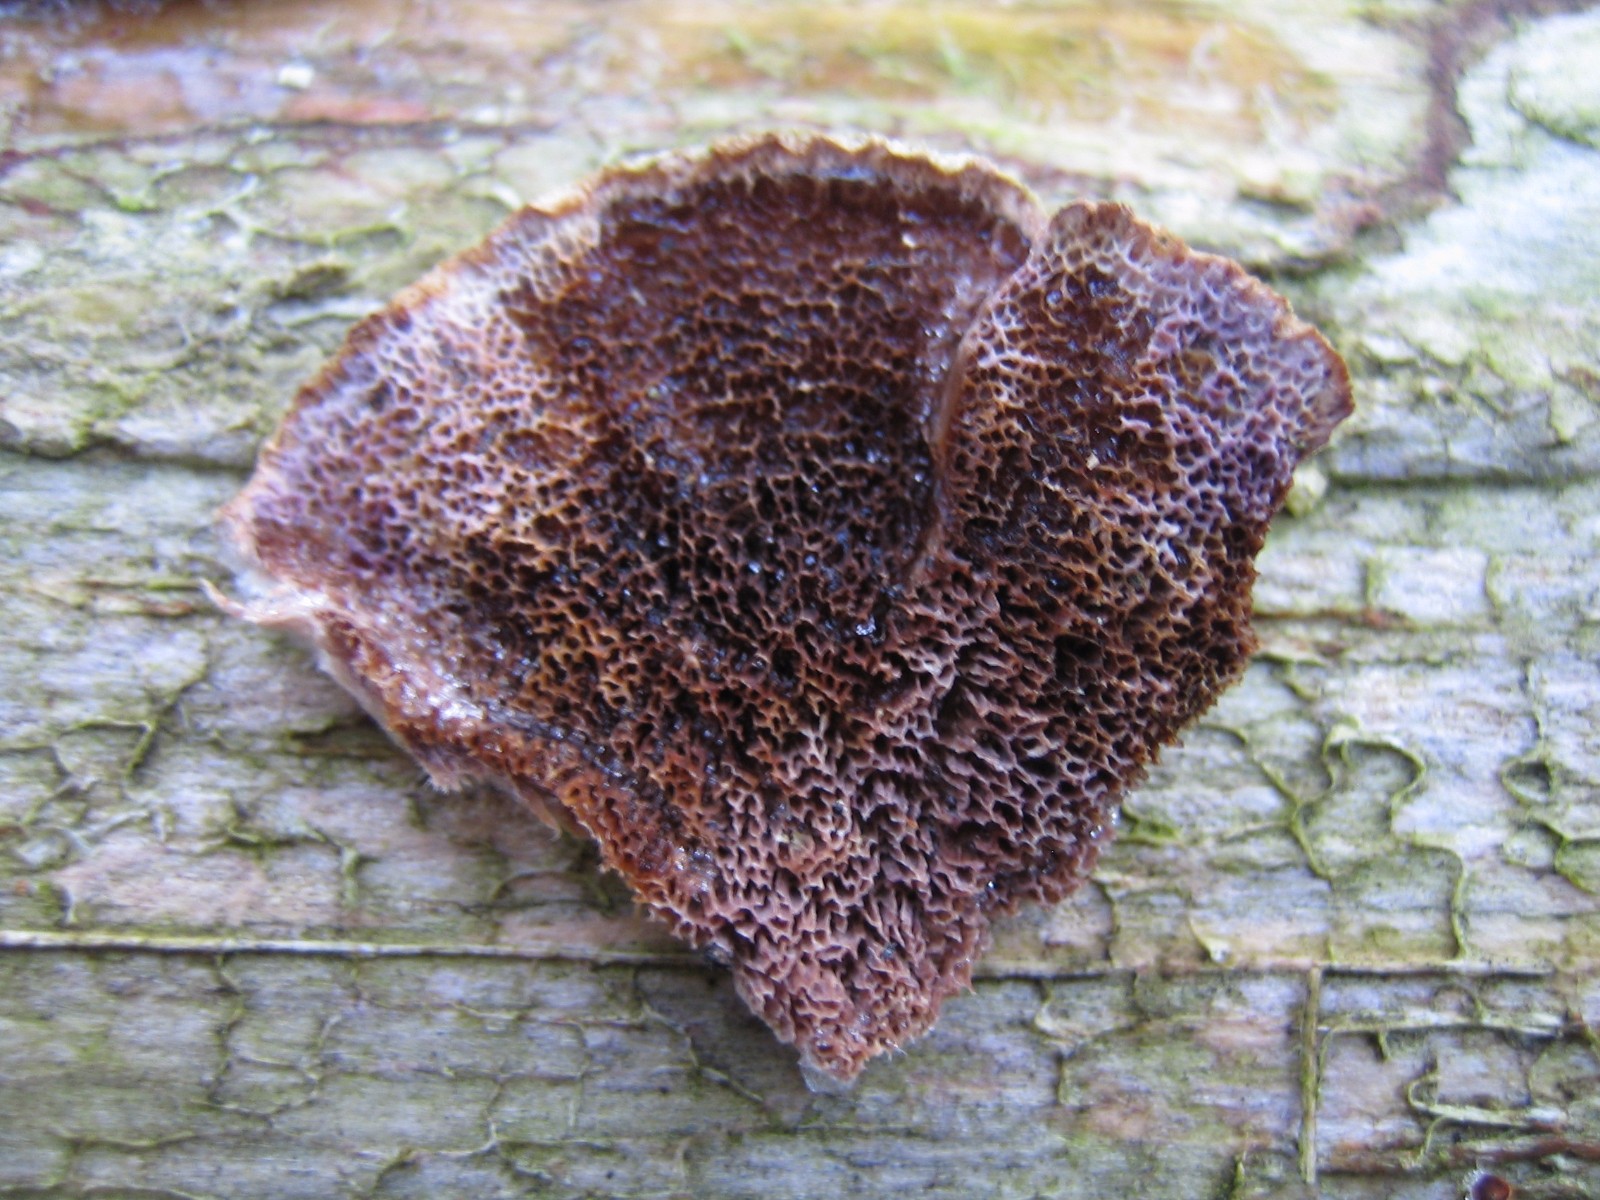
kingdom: Fungi
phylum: Basidiomycota
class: Agaricomycetes
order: Hymenochaetales
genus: Trichaptum
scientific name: Trichaptum abietinum
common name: almindelig violporesvamp
